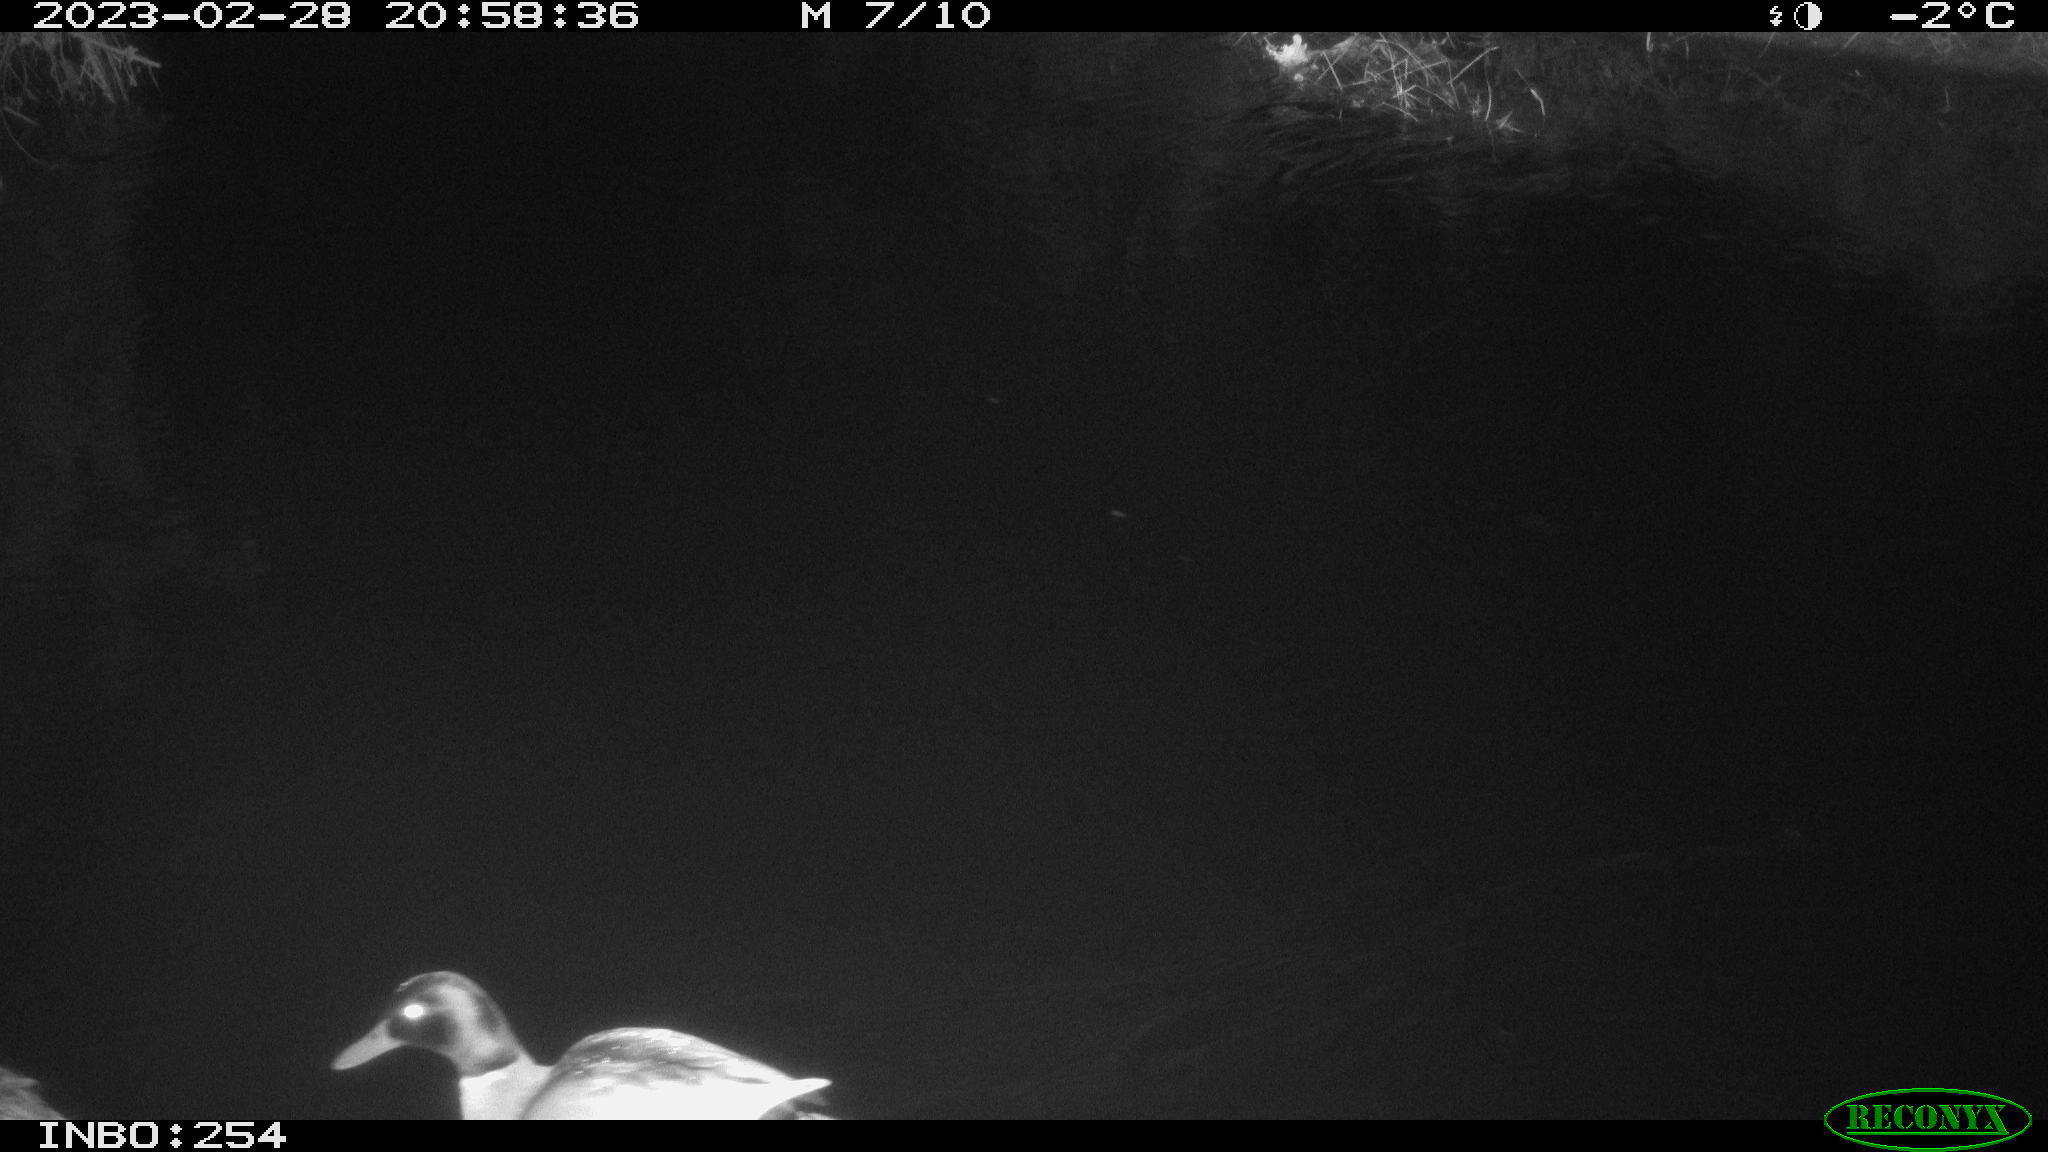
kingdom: Animalia
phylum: Chordata
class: Aves
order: Anseriformes
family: Anatidae
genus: Anas
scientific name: Anas
